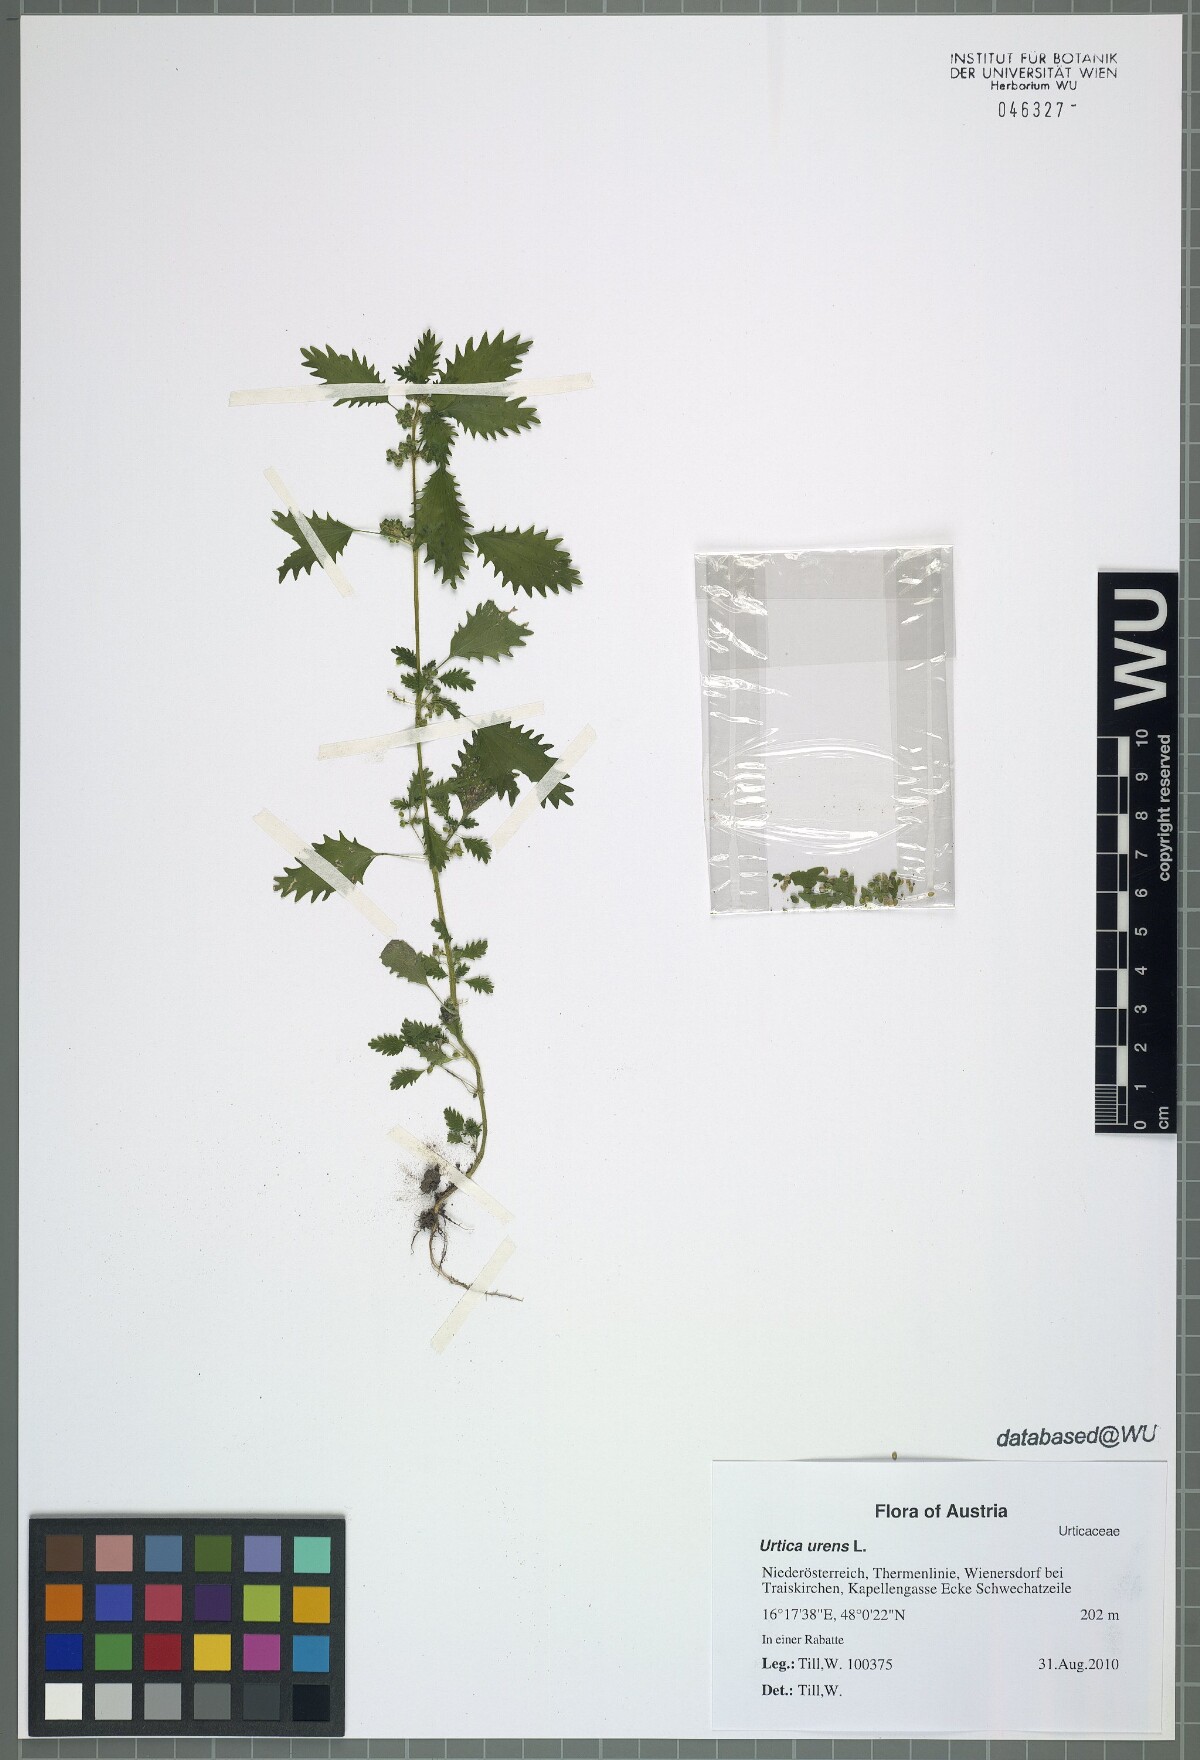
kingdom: Plantae
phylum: Tracheophyta
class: Magnoliopsida
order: Rosales
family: Urticaceae
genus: Urtica
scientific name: Urtica urens
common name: Dwarf nettle
